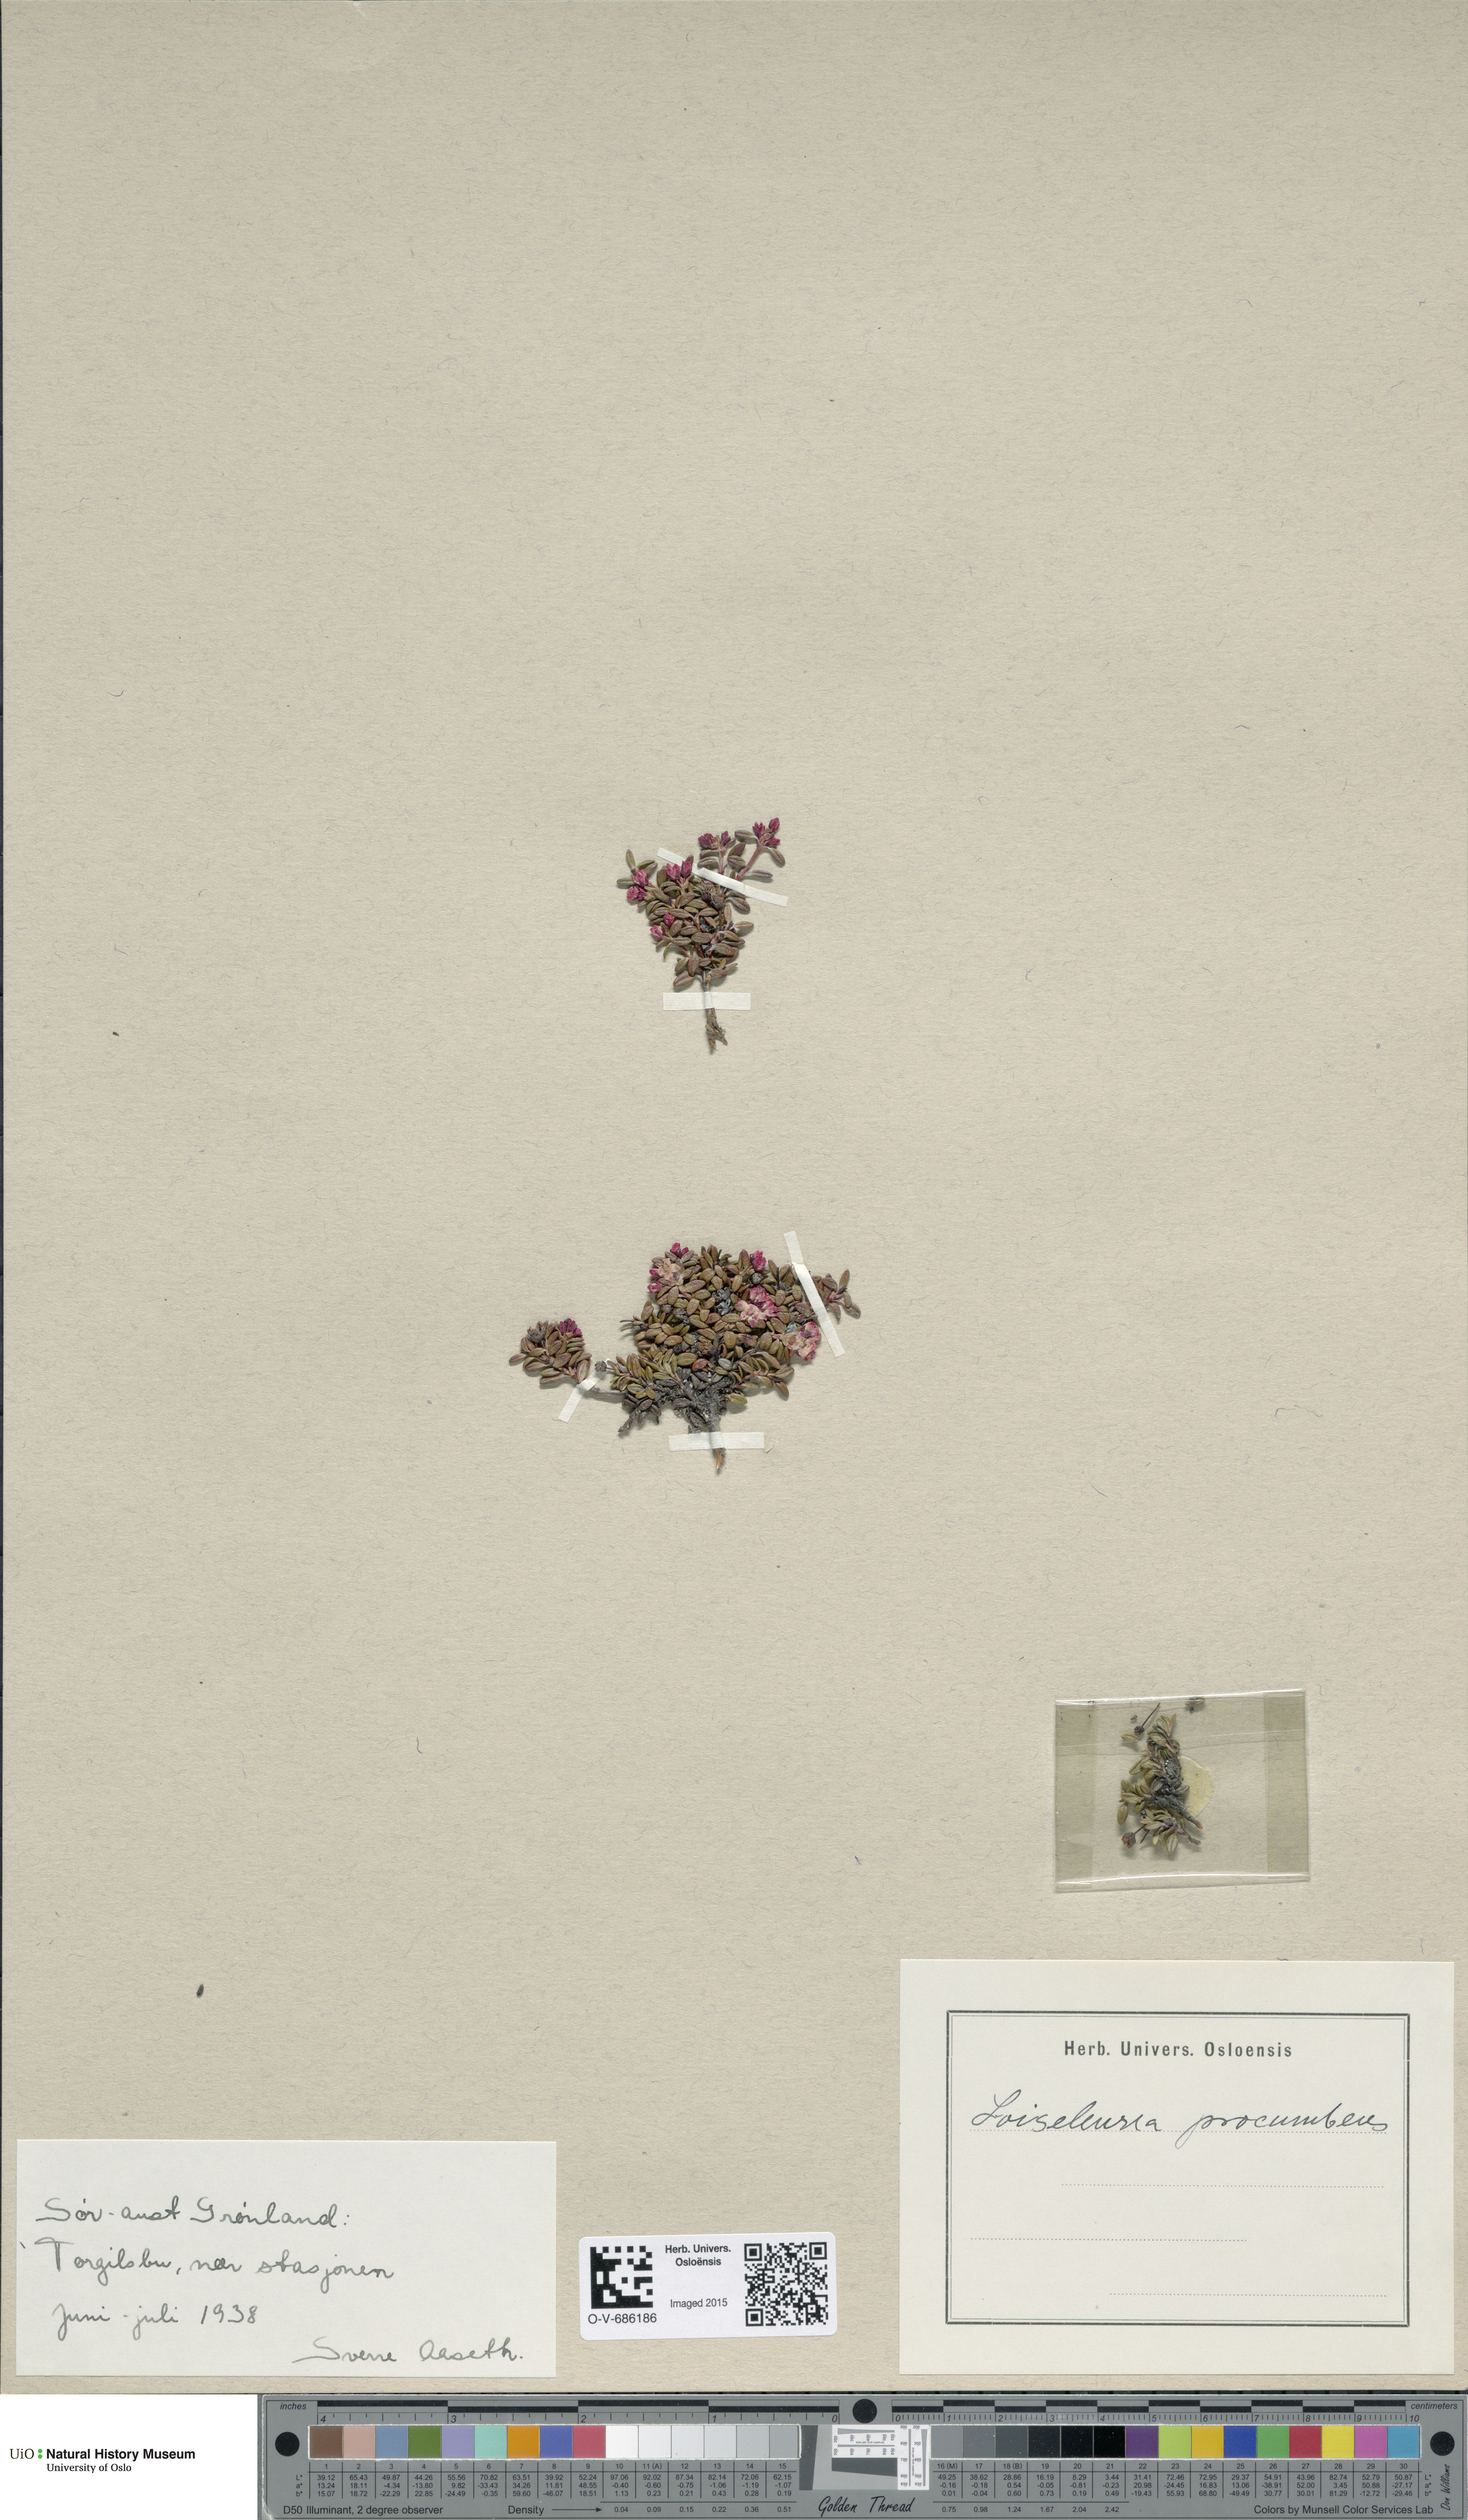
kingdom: Plantae
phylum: Tracheophyta
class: Magnoliopsida
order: Ericales
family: Ericaceae
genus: Kalmia
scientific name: Kalmia procumbens
